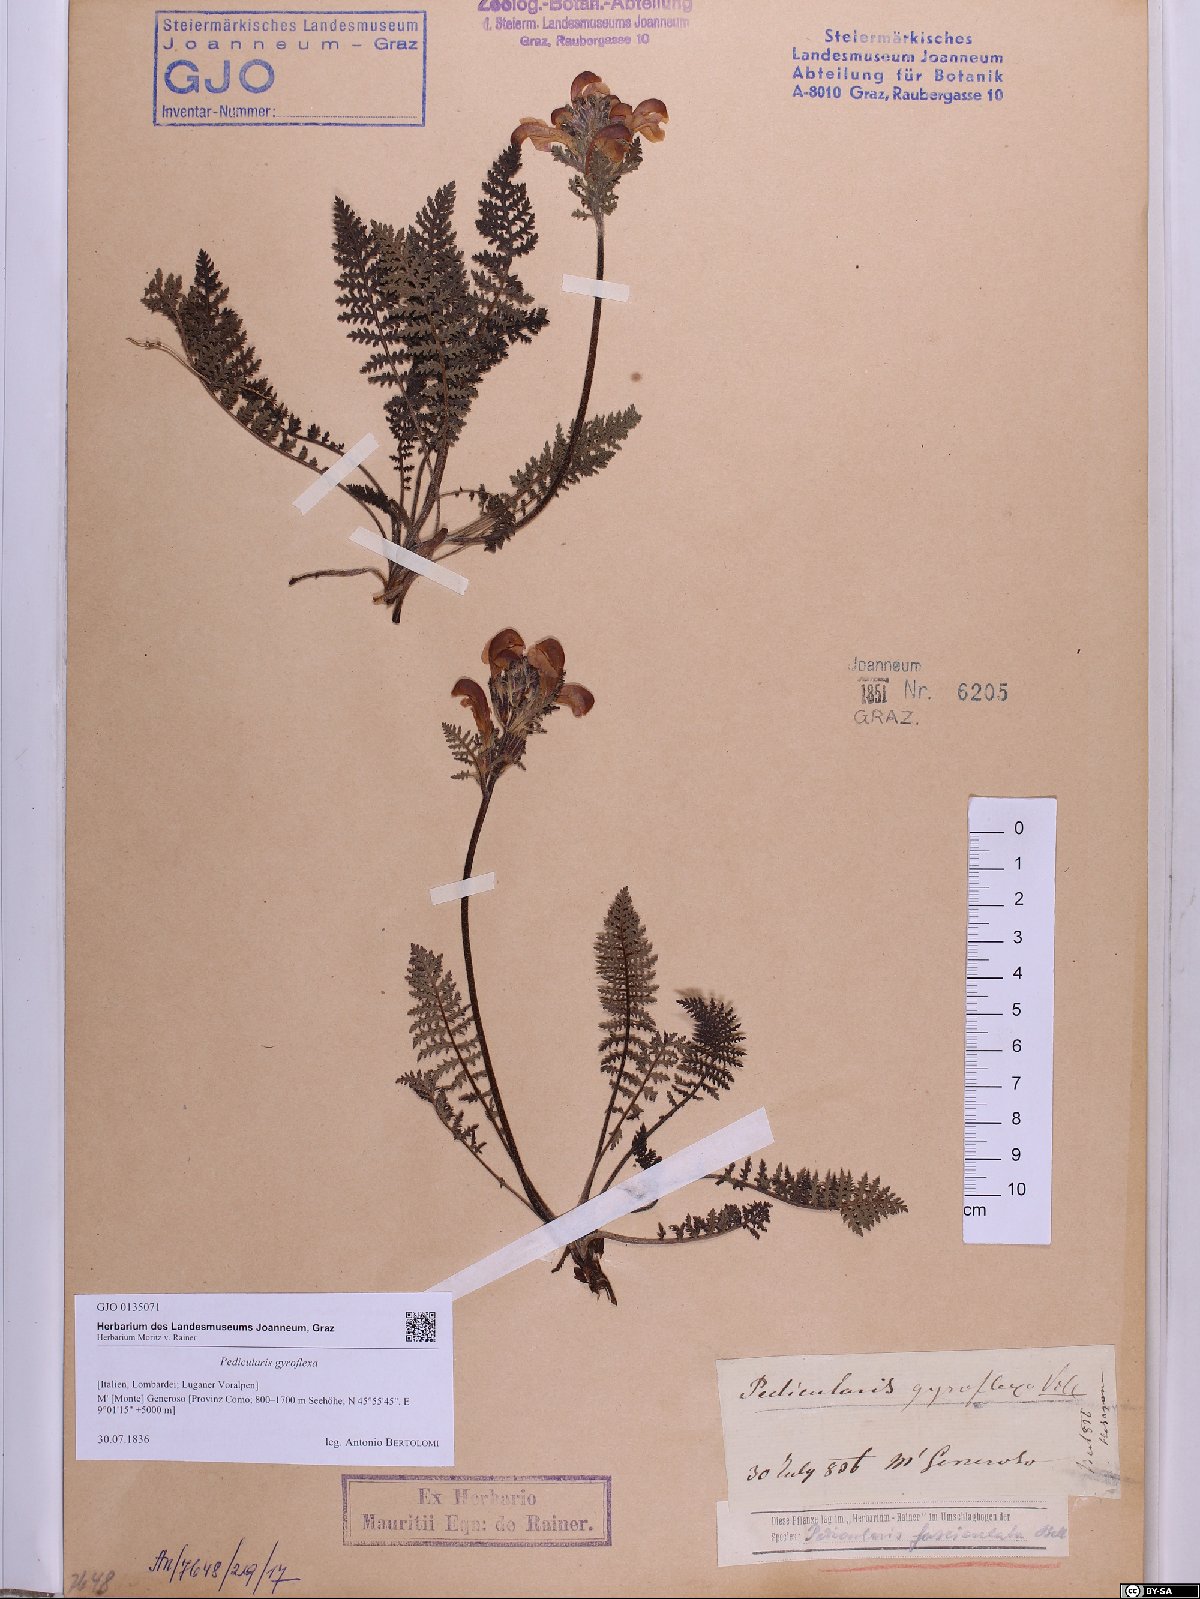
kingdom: Plantae
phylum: Tracheophyta
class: Magnoliopsida
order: Lamiales
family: Orobanchaceae
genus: Pedicularis
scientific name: Pedicularis gyroflexa
